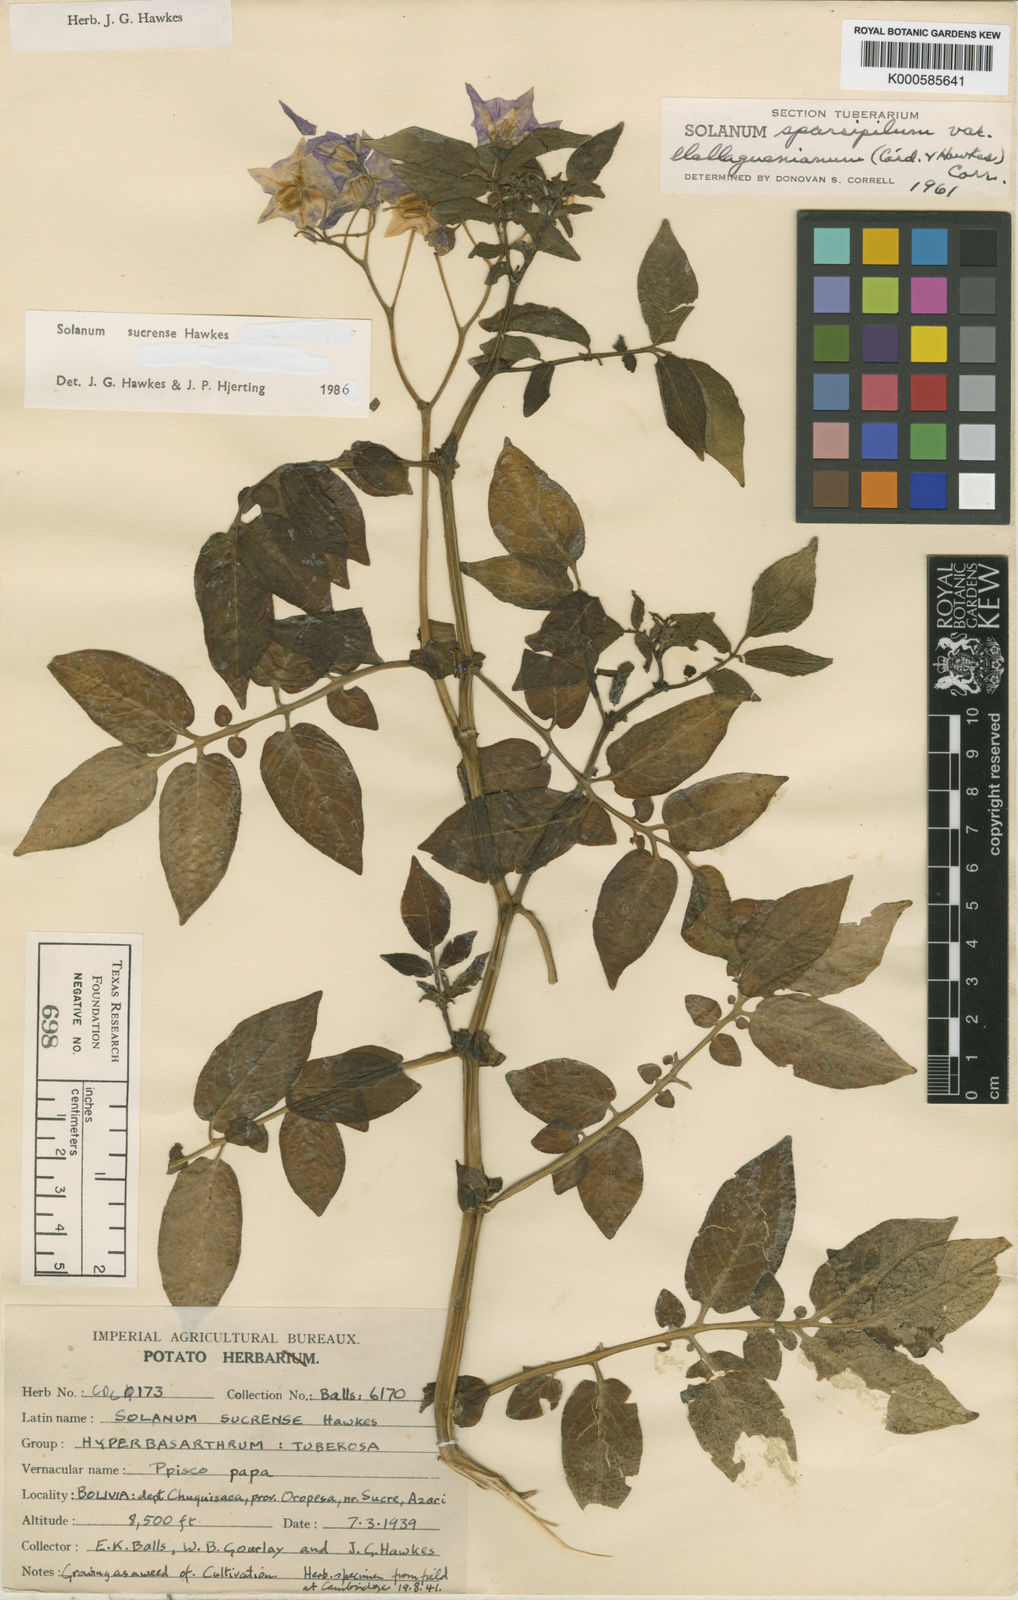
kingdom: Plantae
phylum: Tracheophyta
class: Magnoliopsida
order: Solanales
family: Solanaceae
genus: Solanum
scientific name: Solanum brevicaule
